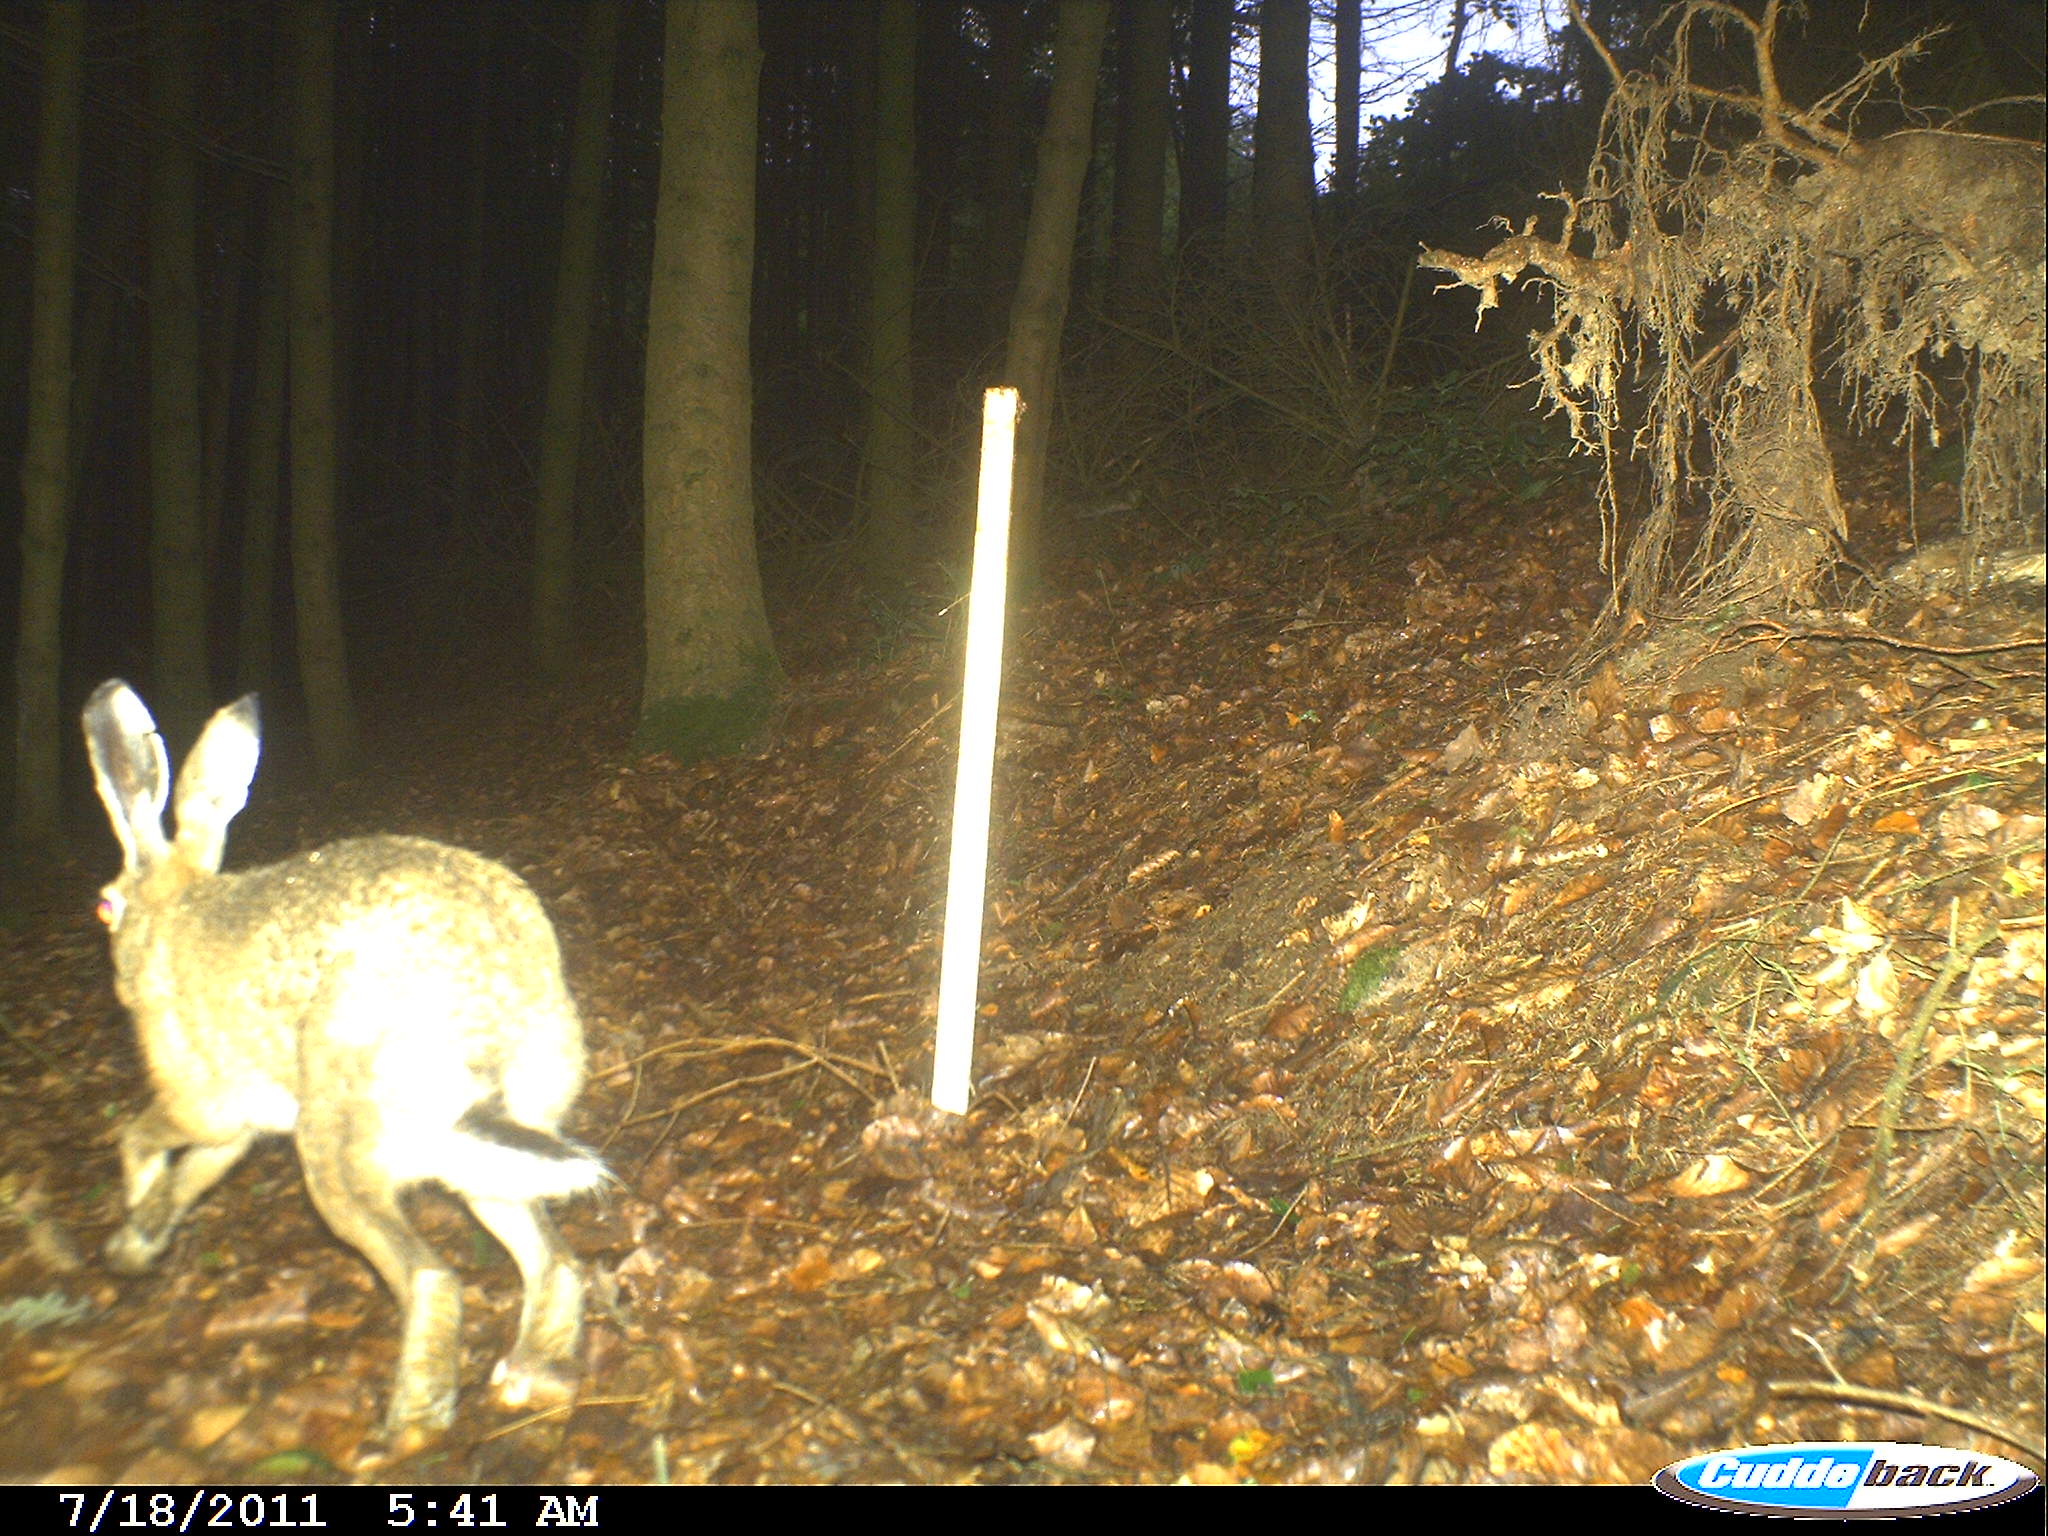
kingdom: Animalia
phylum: Chordata
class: Mammalia
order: Lagomorpha
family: Leporidae
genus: Lepus
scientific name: Lepus europaeus
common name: European hare
